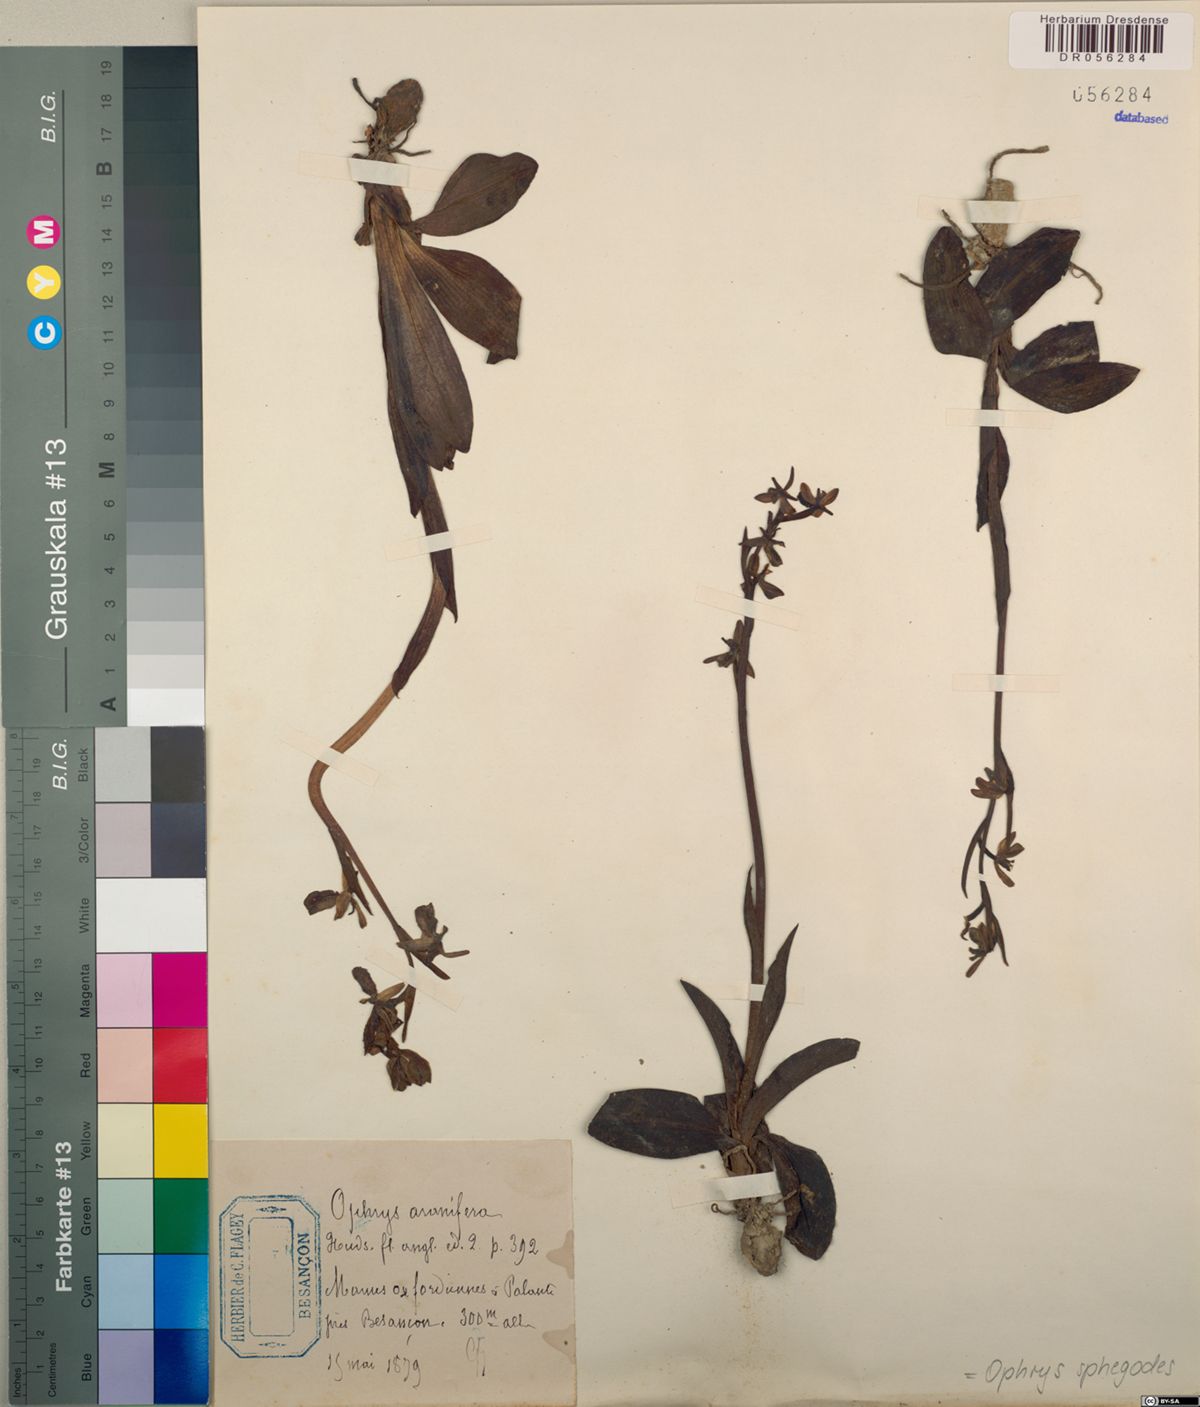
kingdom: Plantae
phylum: Tracheophyta
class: Liliopsida
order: Asparagales
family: Orchidaceae
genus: Ophrys
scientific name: Ophrys sphegodes
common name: Early spider-orchid
